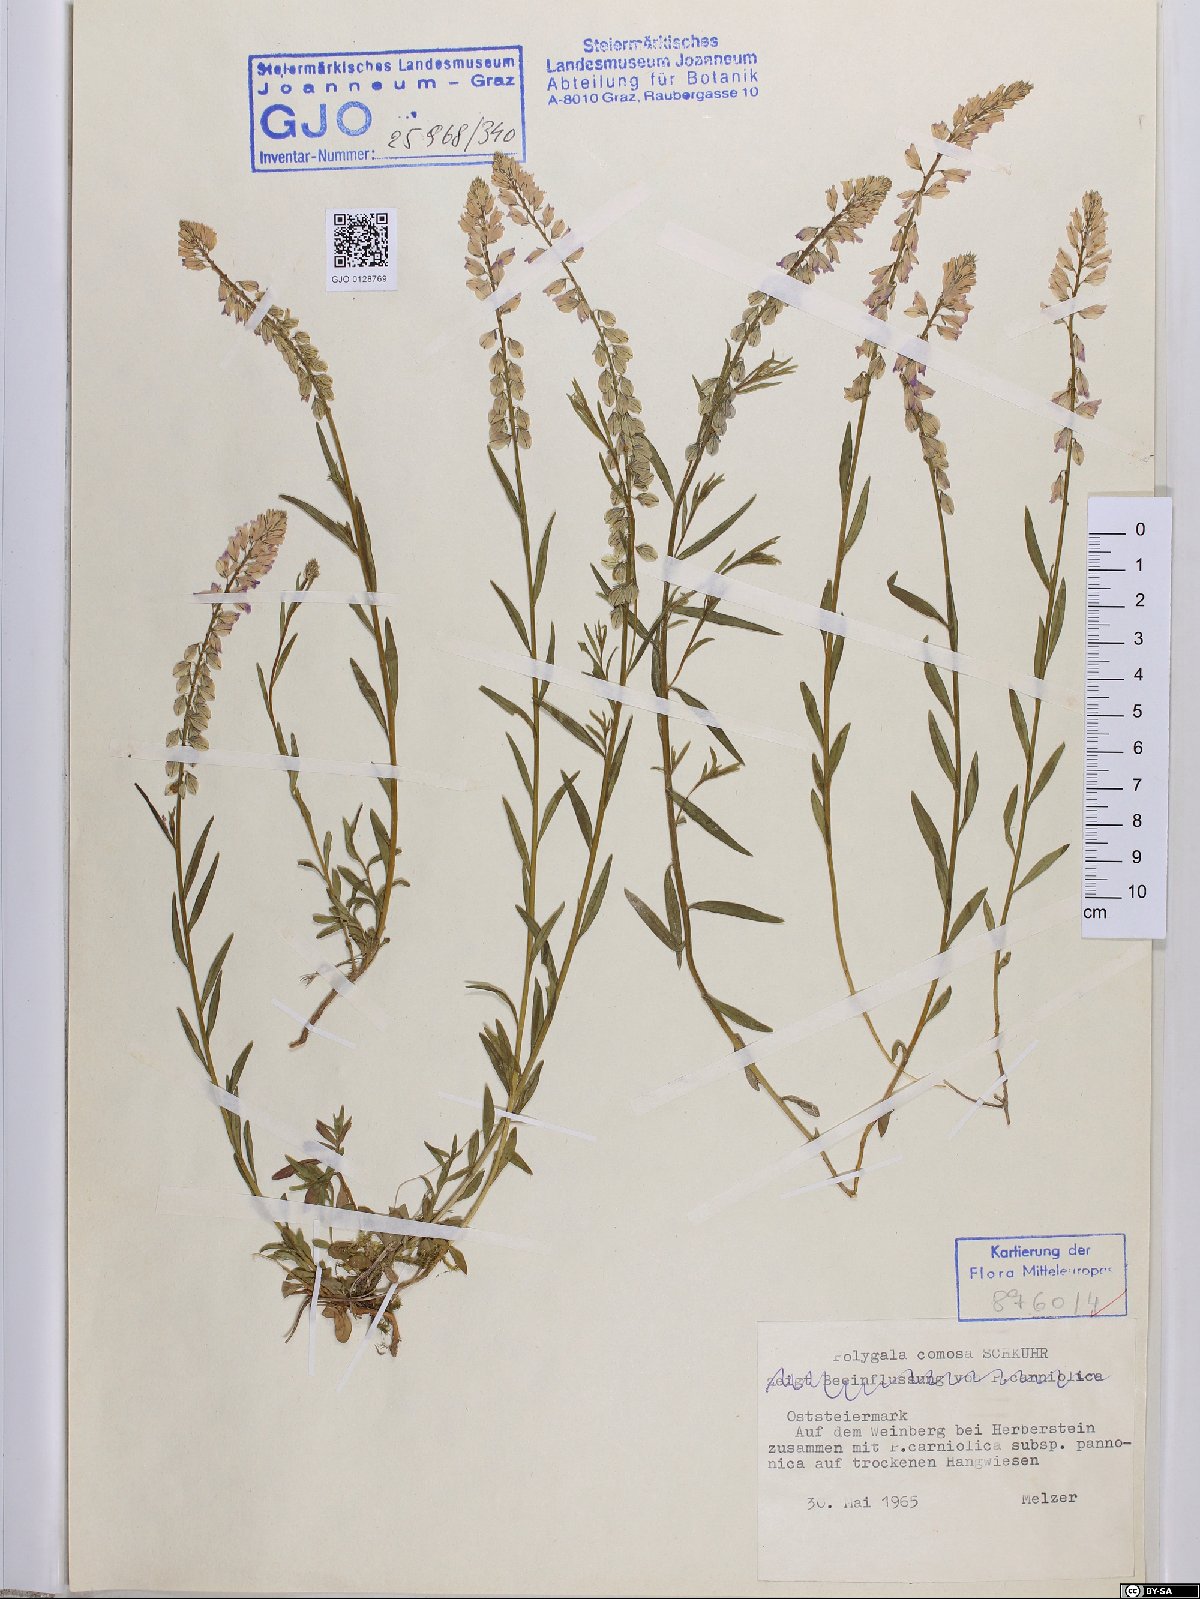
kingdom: Plantae
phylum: Tracheophyta
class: Magnoliopsida
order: Fabales
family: Polygalaceae
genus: Polygala
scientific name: Polygala comosa
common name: Tufted milkwort
